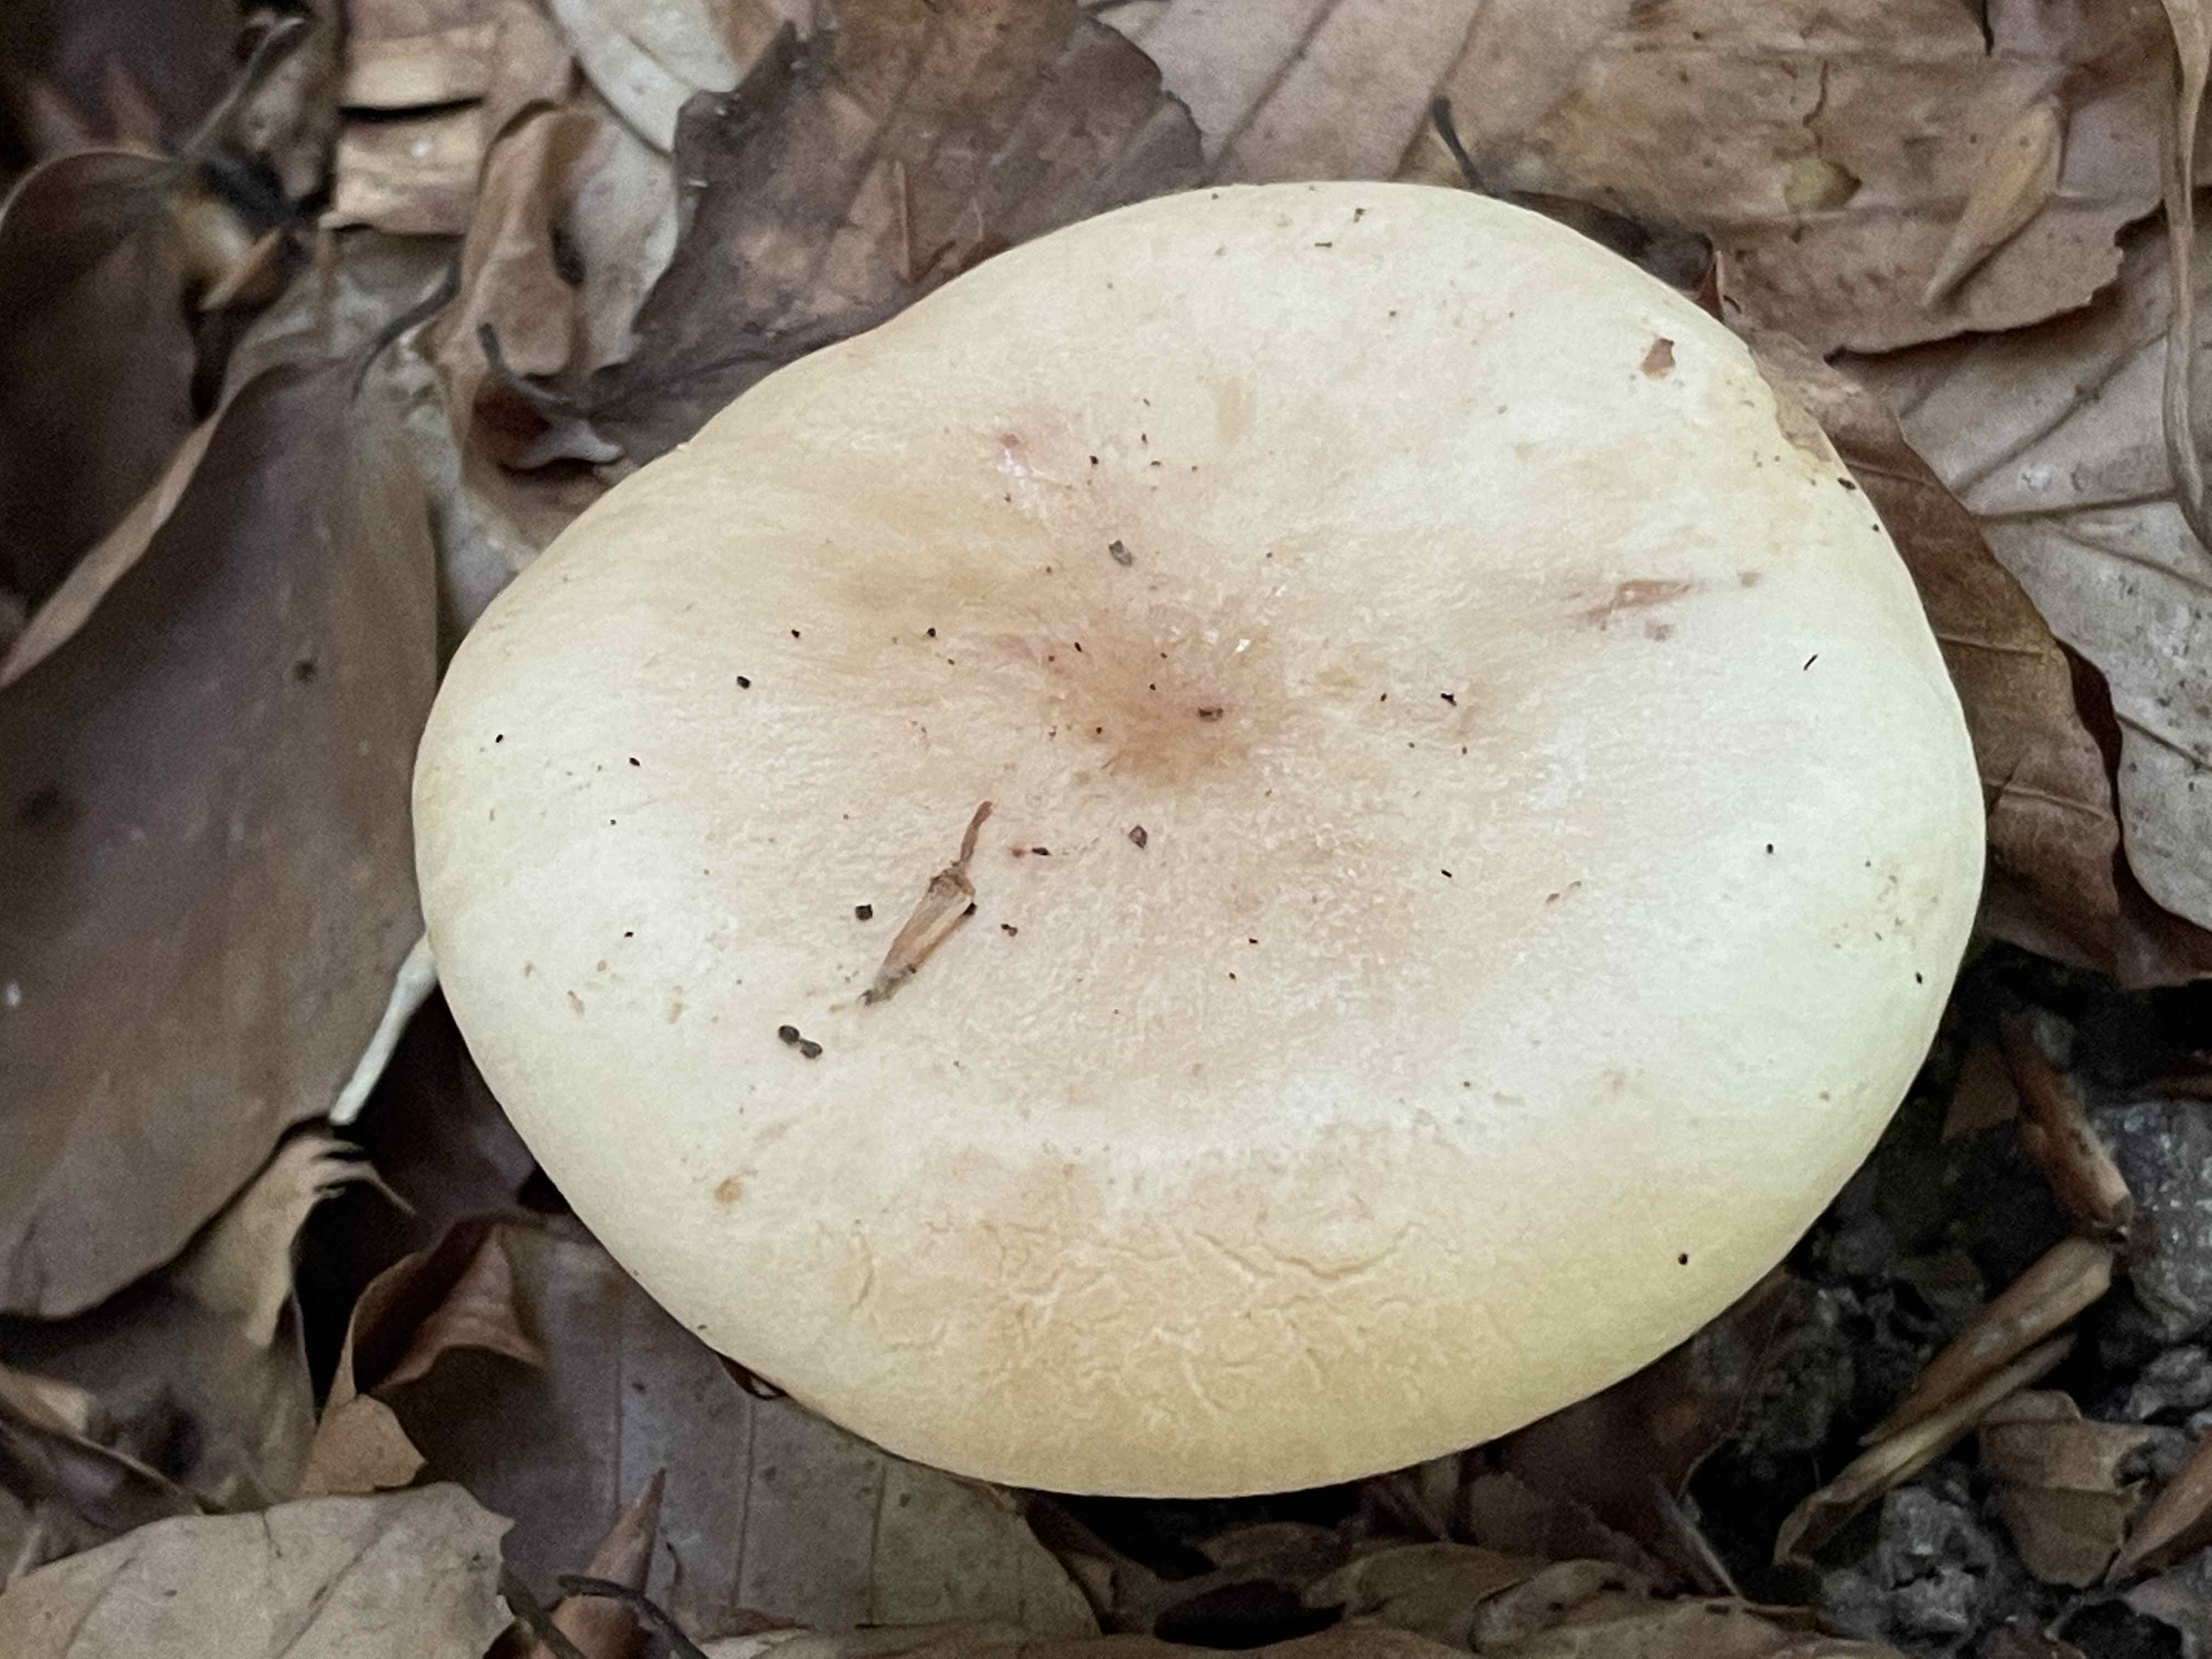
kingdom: Fungi
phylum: Basidiomycota
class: Agaricomycetes
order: Russulales
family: Russulaceae
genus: Lactarius
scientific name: Lactarius pallidus
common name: bleg mælkehat
